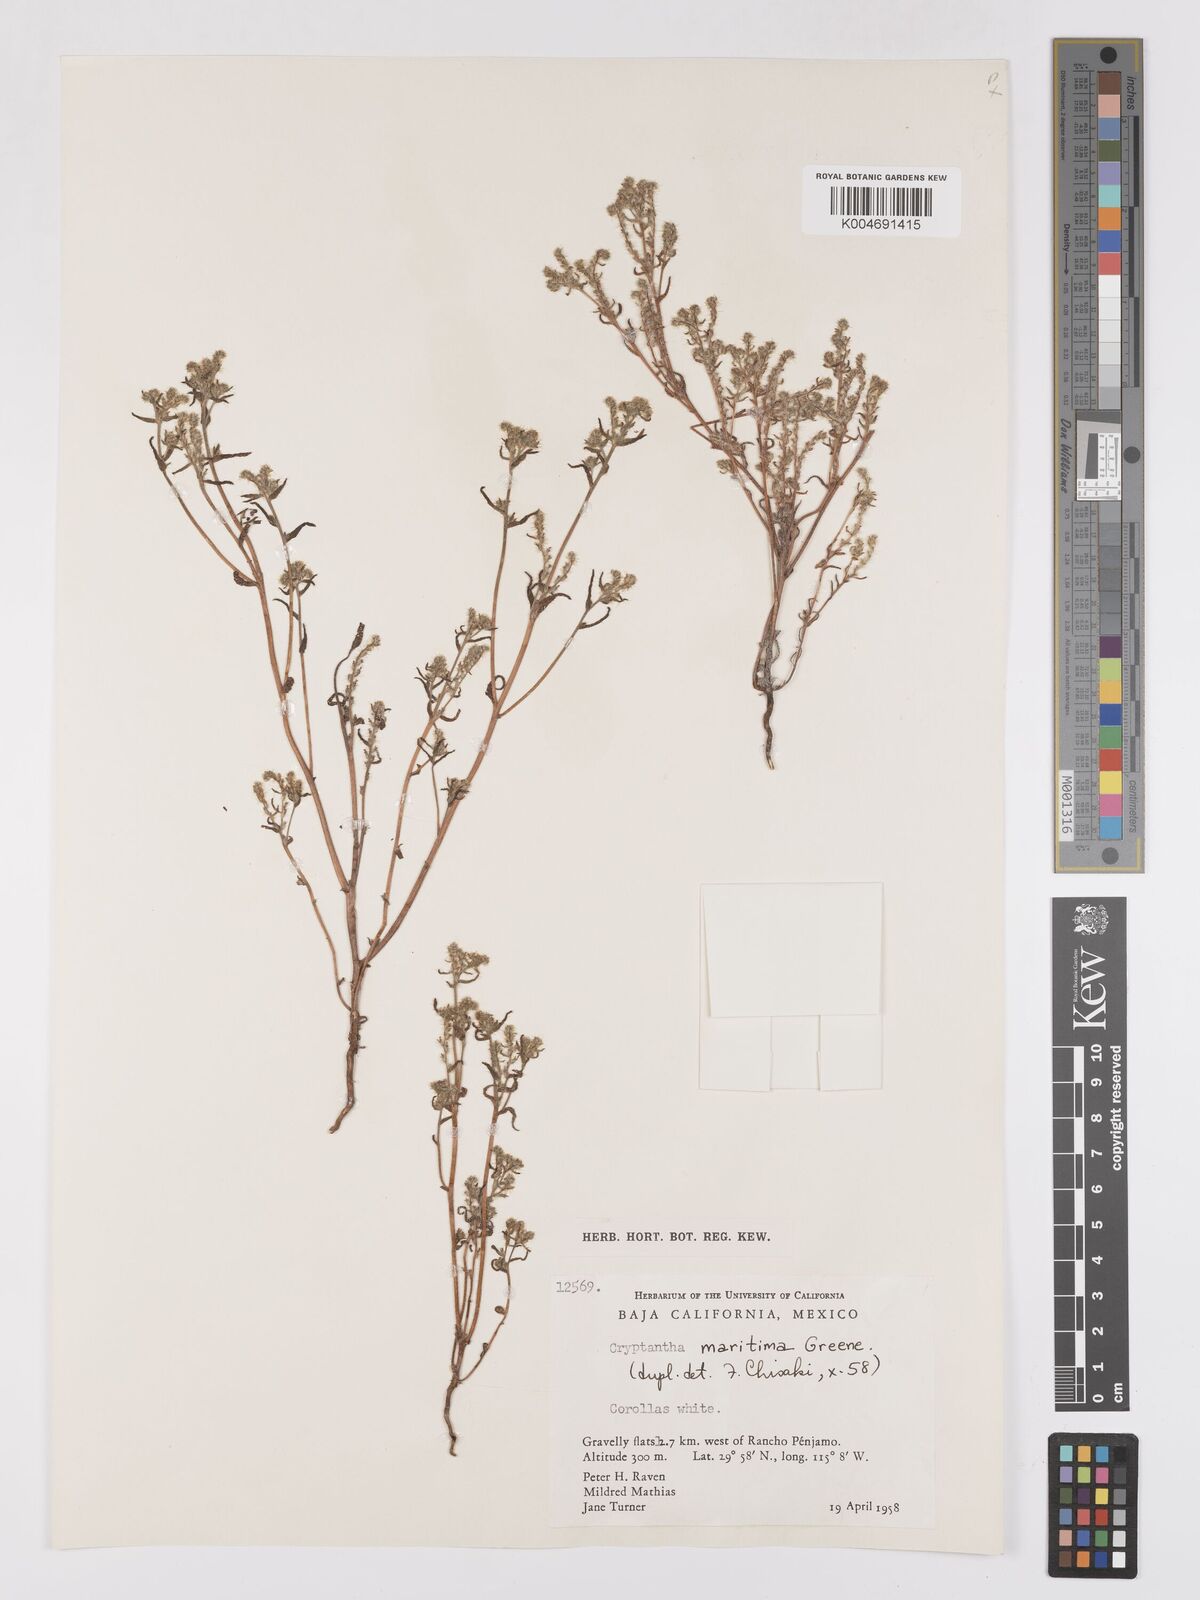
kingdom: Plantae
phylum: Tracheophyta
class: Magnoliopsida
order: Boraginales
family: Boraginaceae
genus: Cryptantha
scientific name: Cryptantha maritima
